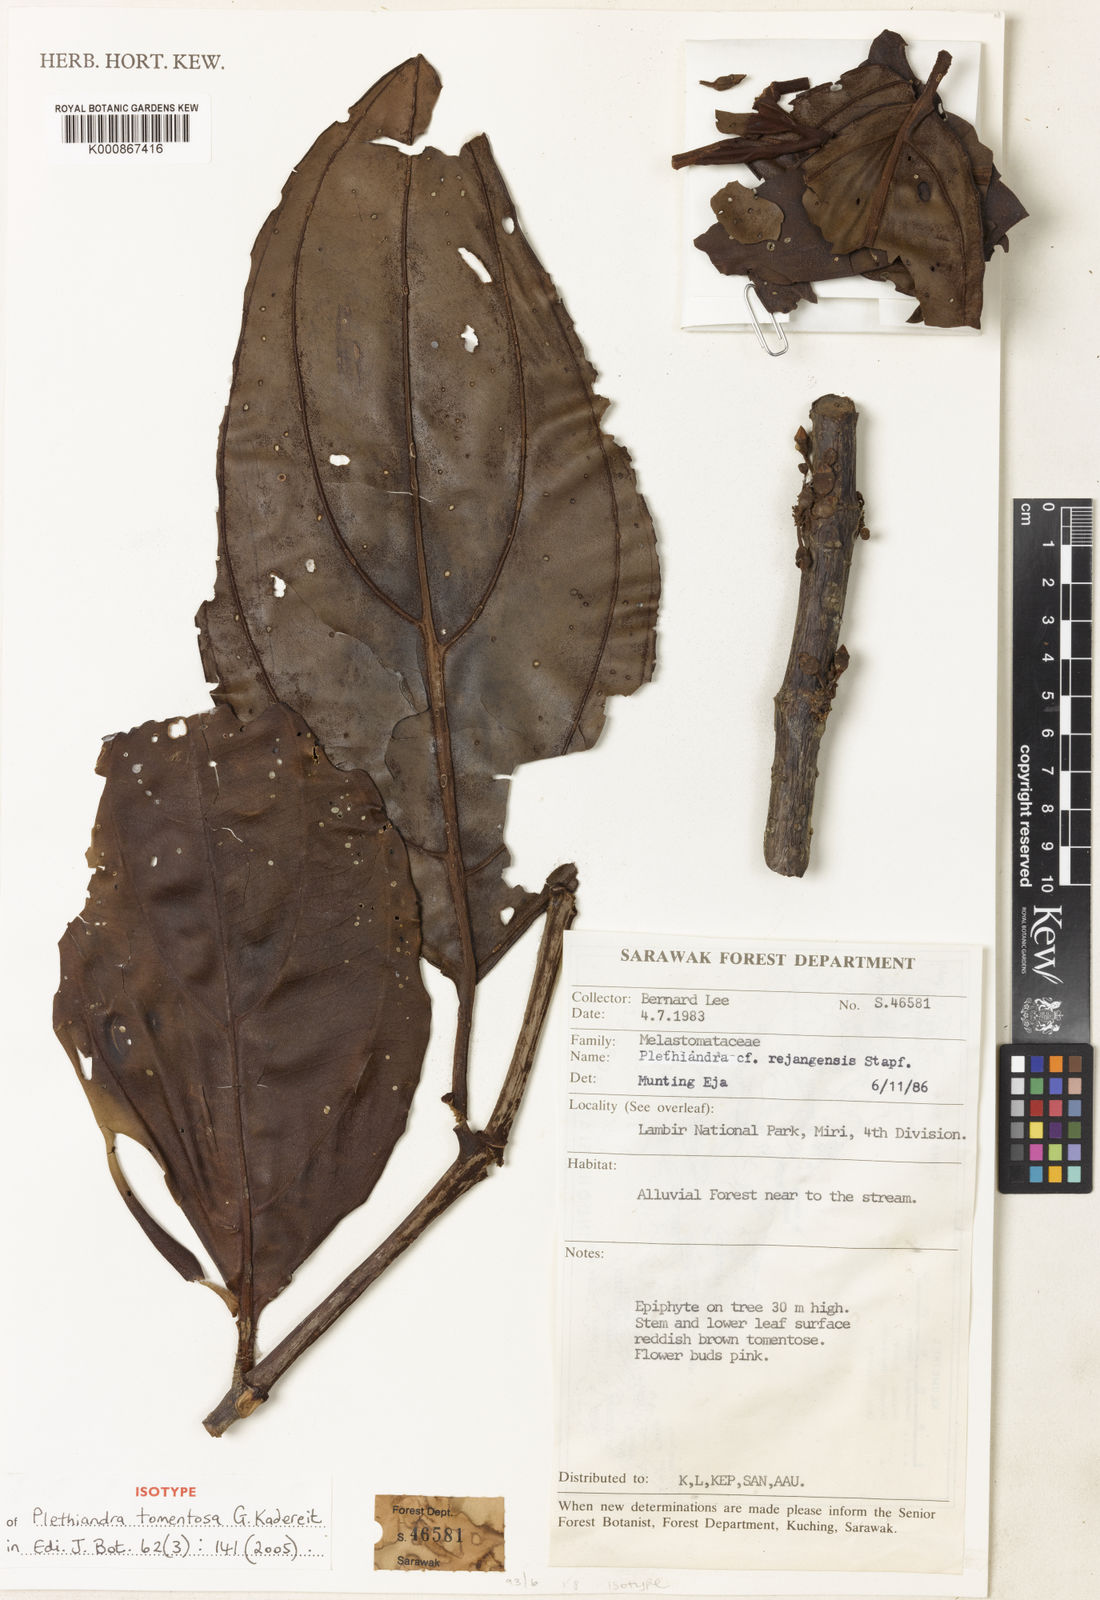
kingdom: Plantae
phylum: Tracheophyta
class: Magnoliopsida
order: Myrtales
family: Melastomataceae
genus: Plethiandra
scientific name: Plethiandra tomentosa
